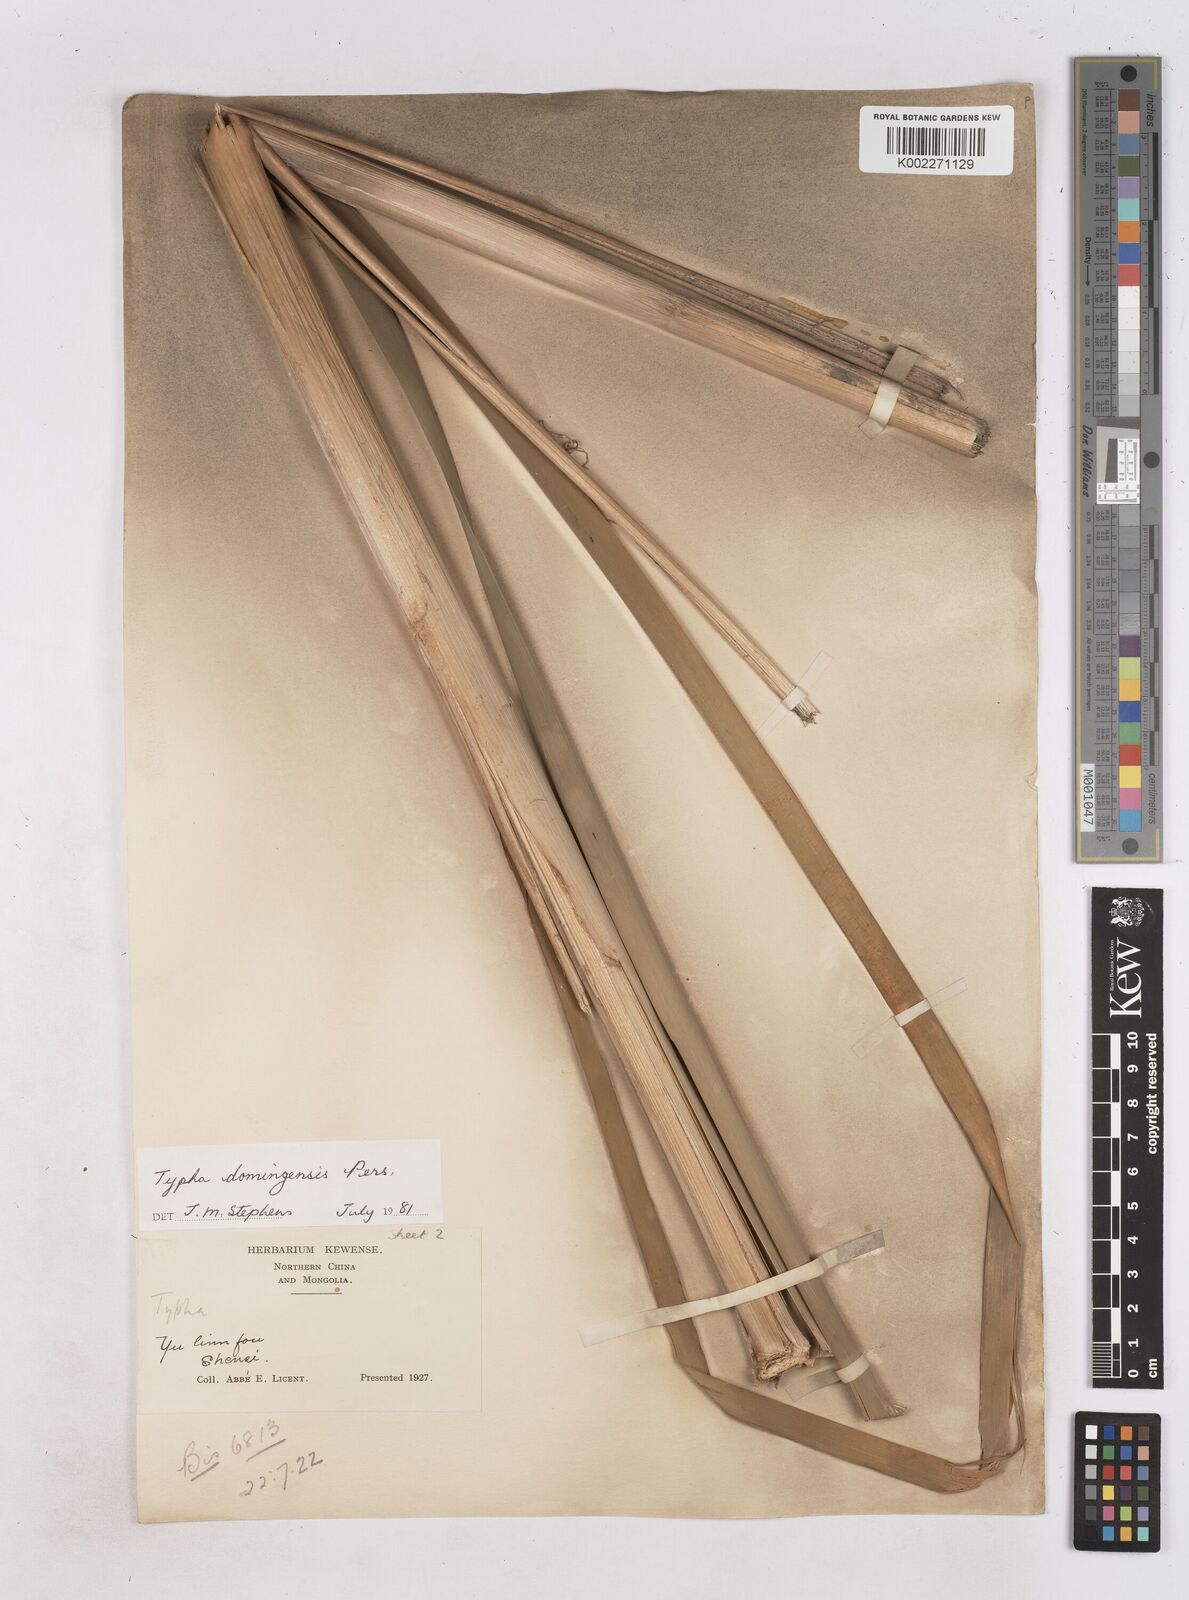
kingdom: Plantae
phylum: Tracheophyta
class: Liliopsida
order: Poales
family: Typhaceae
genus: Typha
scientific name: Typha domingensis
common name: Southern cattail
